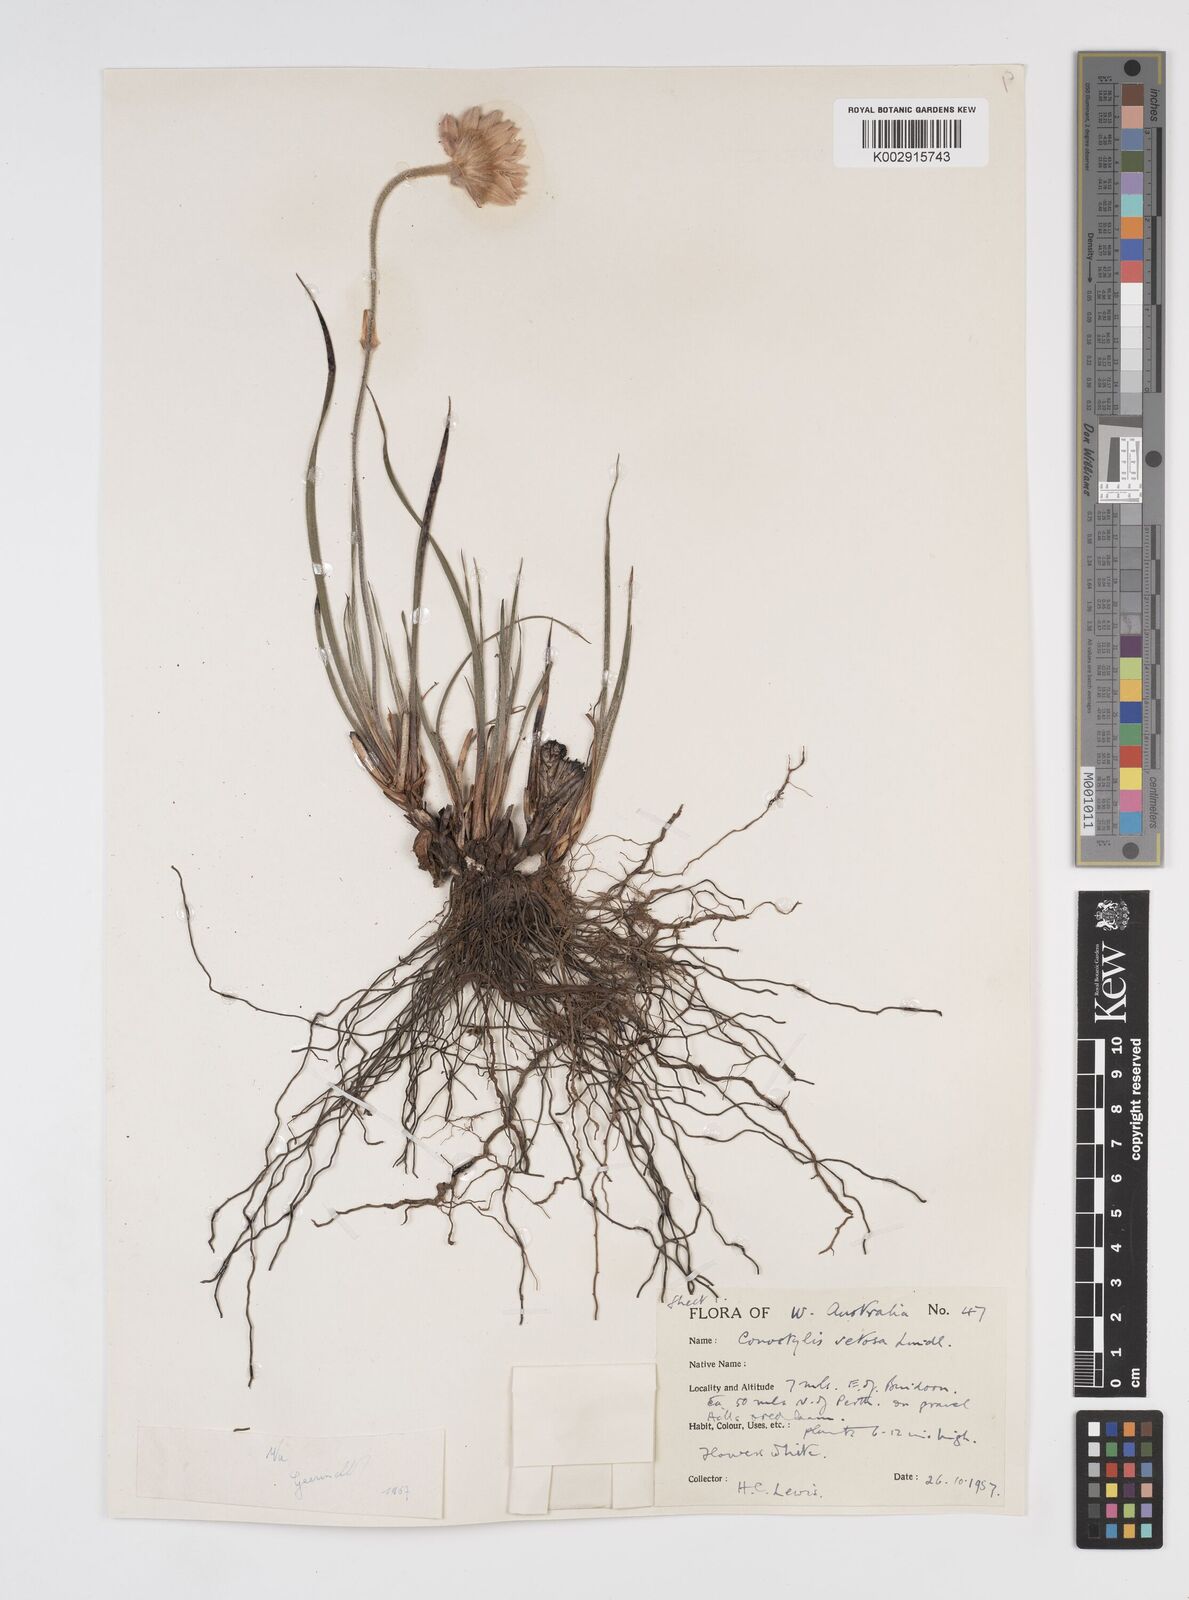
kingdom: Plantae
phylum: Tracheophyta
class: Liliopsida
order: Commelinales
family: Haemodoraceae
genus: Conostylis
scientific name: Conostylis setosa
